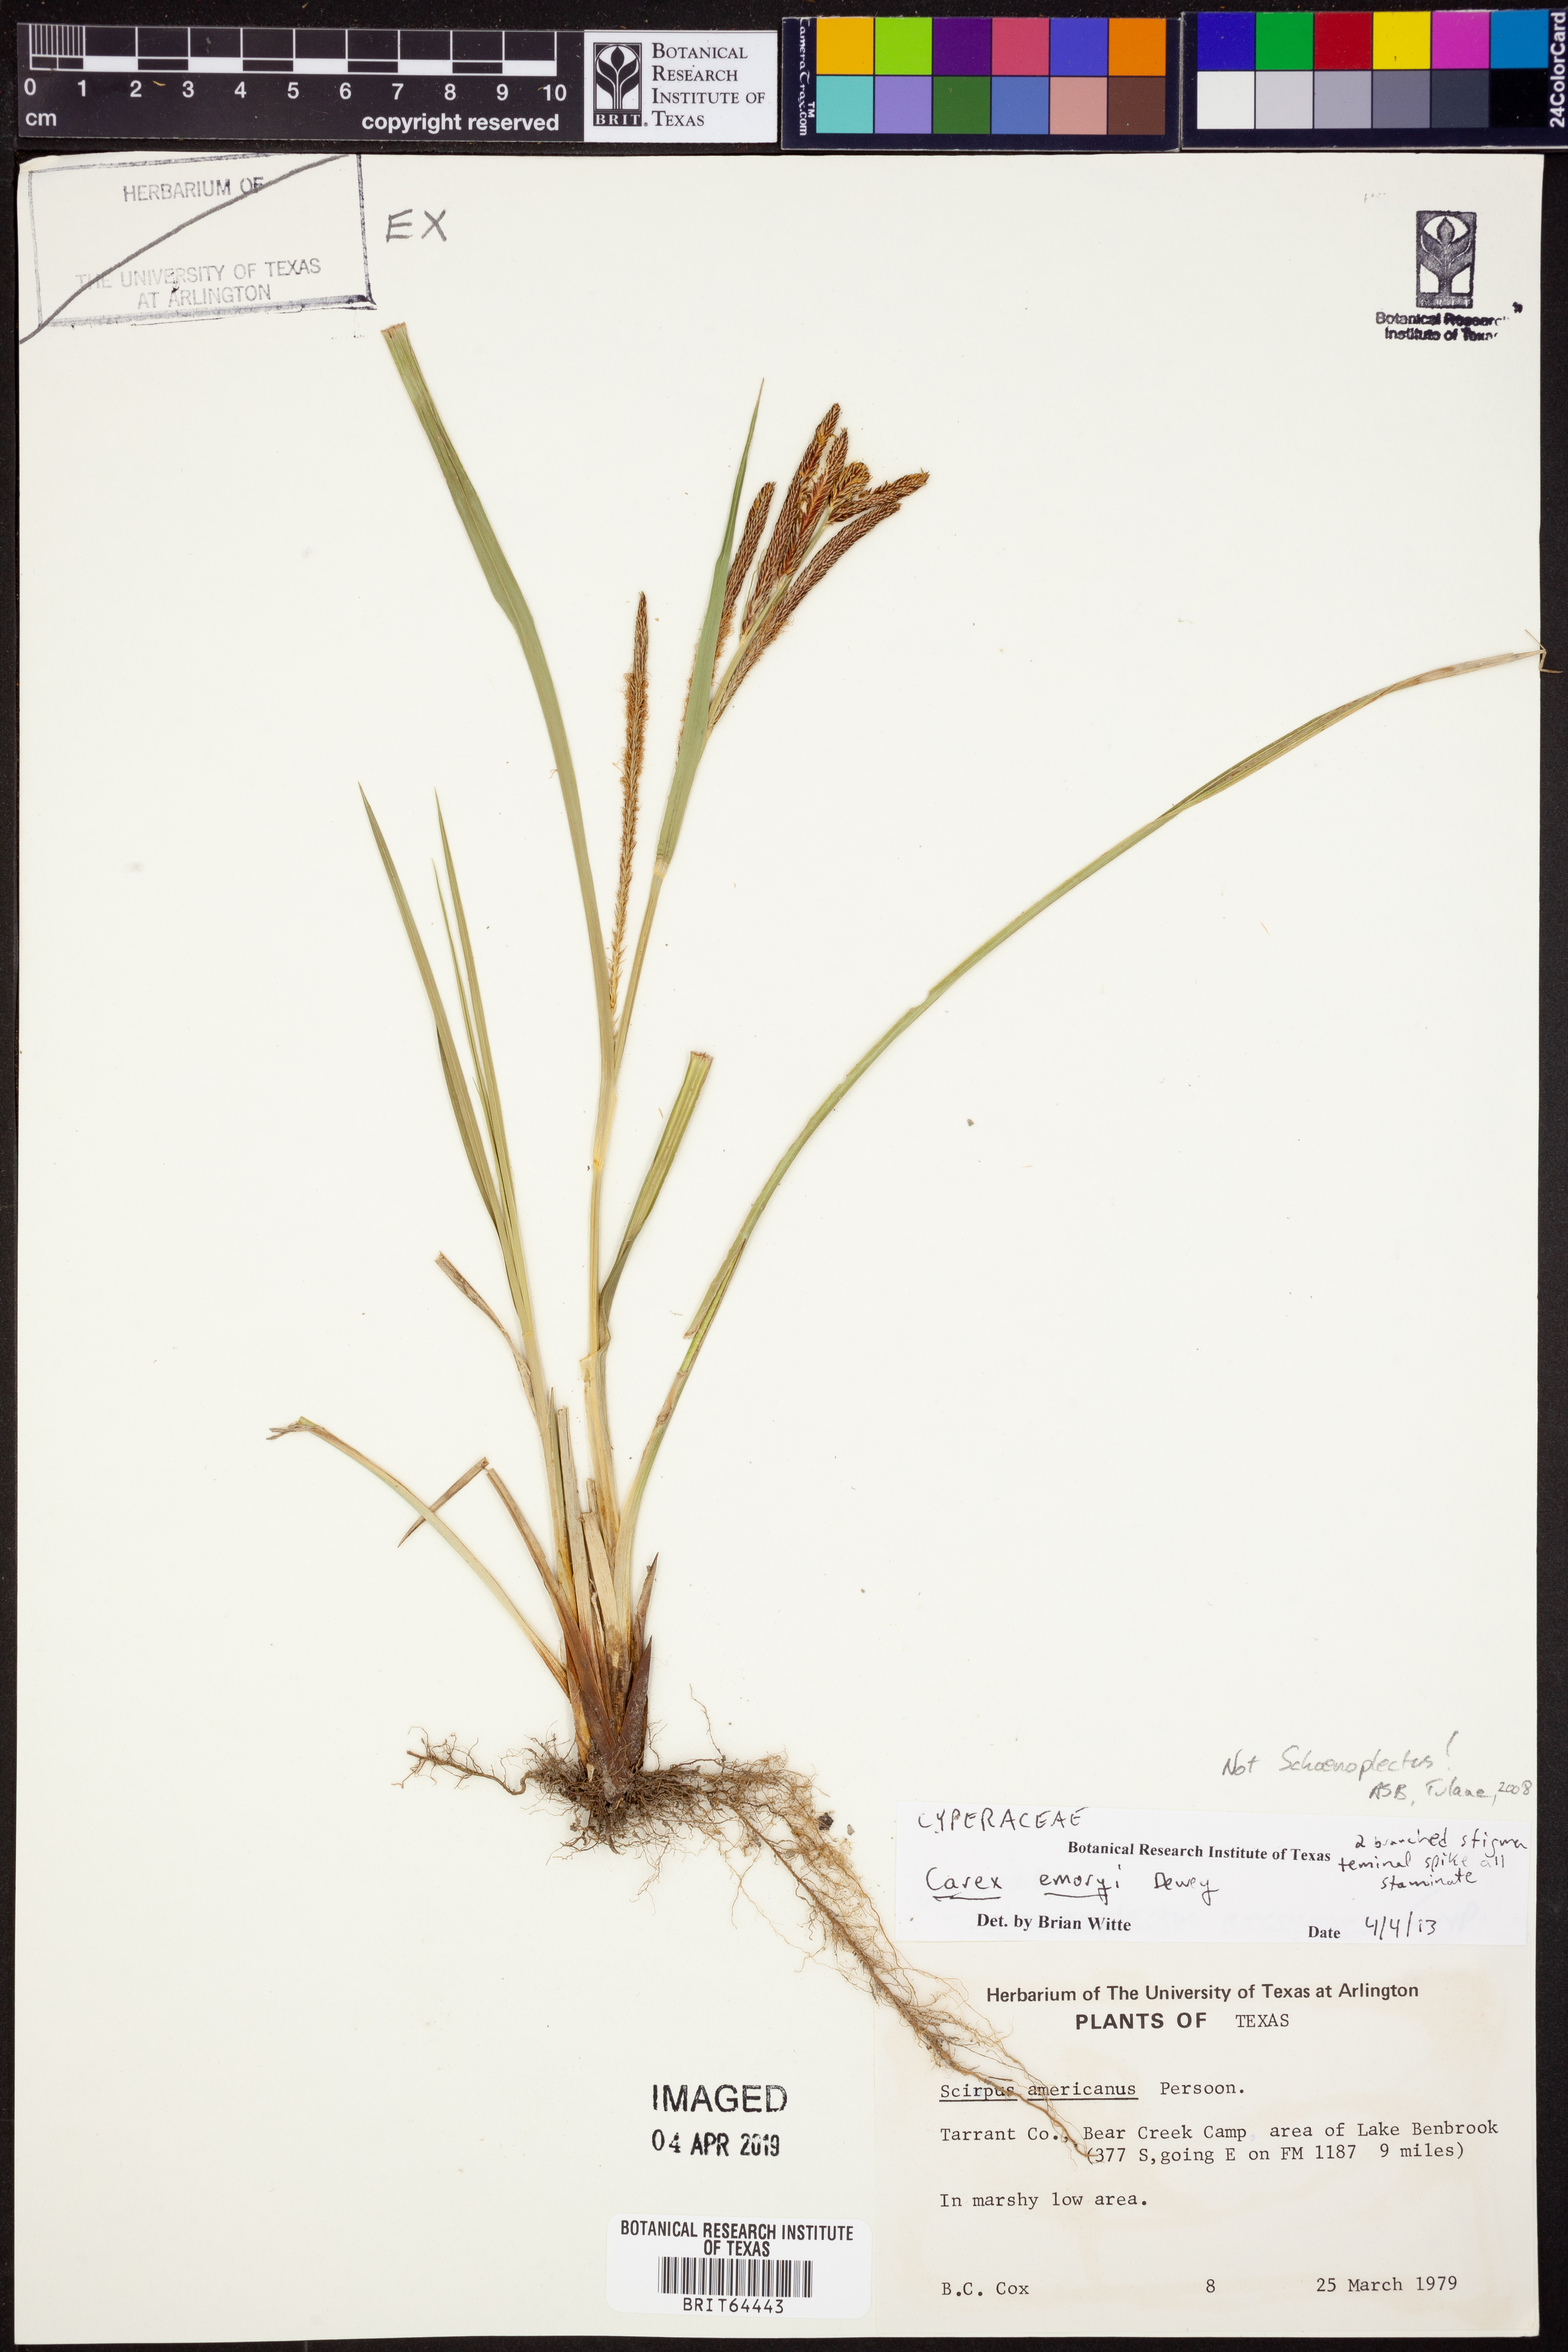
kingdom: Plantae
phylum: Tracheophyta
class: Liliopsida
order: Poales
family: Cyperaceae
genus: Carex
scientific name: Carex emoryi
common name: Emory's sedge
